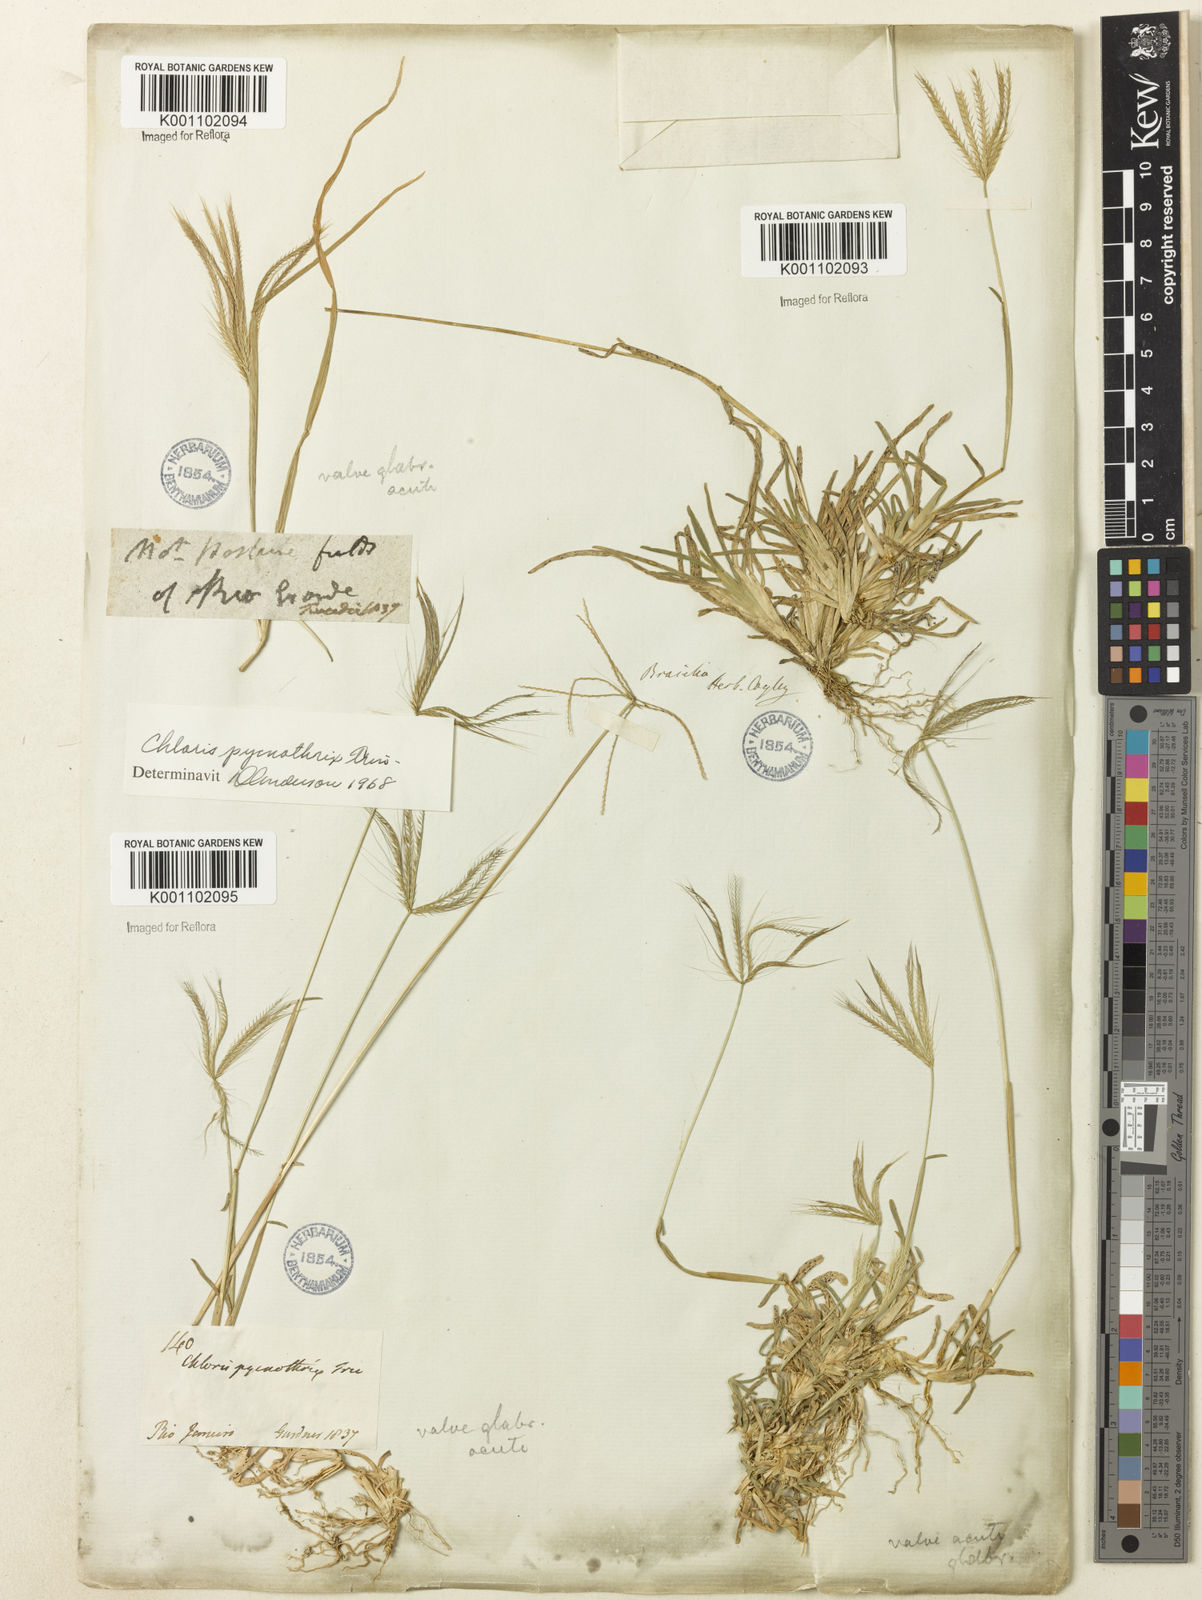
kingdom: Plantae
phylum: Tracheophyta
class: Liliopsida
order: Poales
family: Poaceae
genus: Chloris
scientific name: Chloris pycnothrix
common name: Spiderweb chloris
